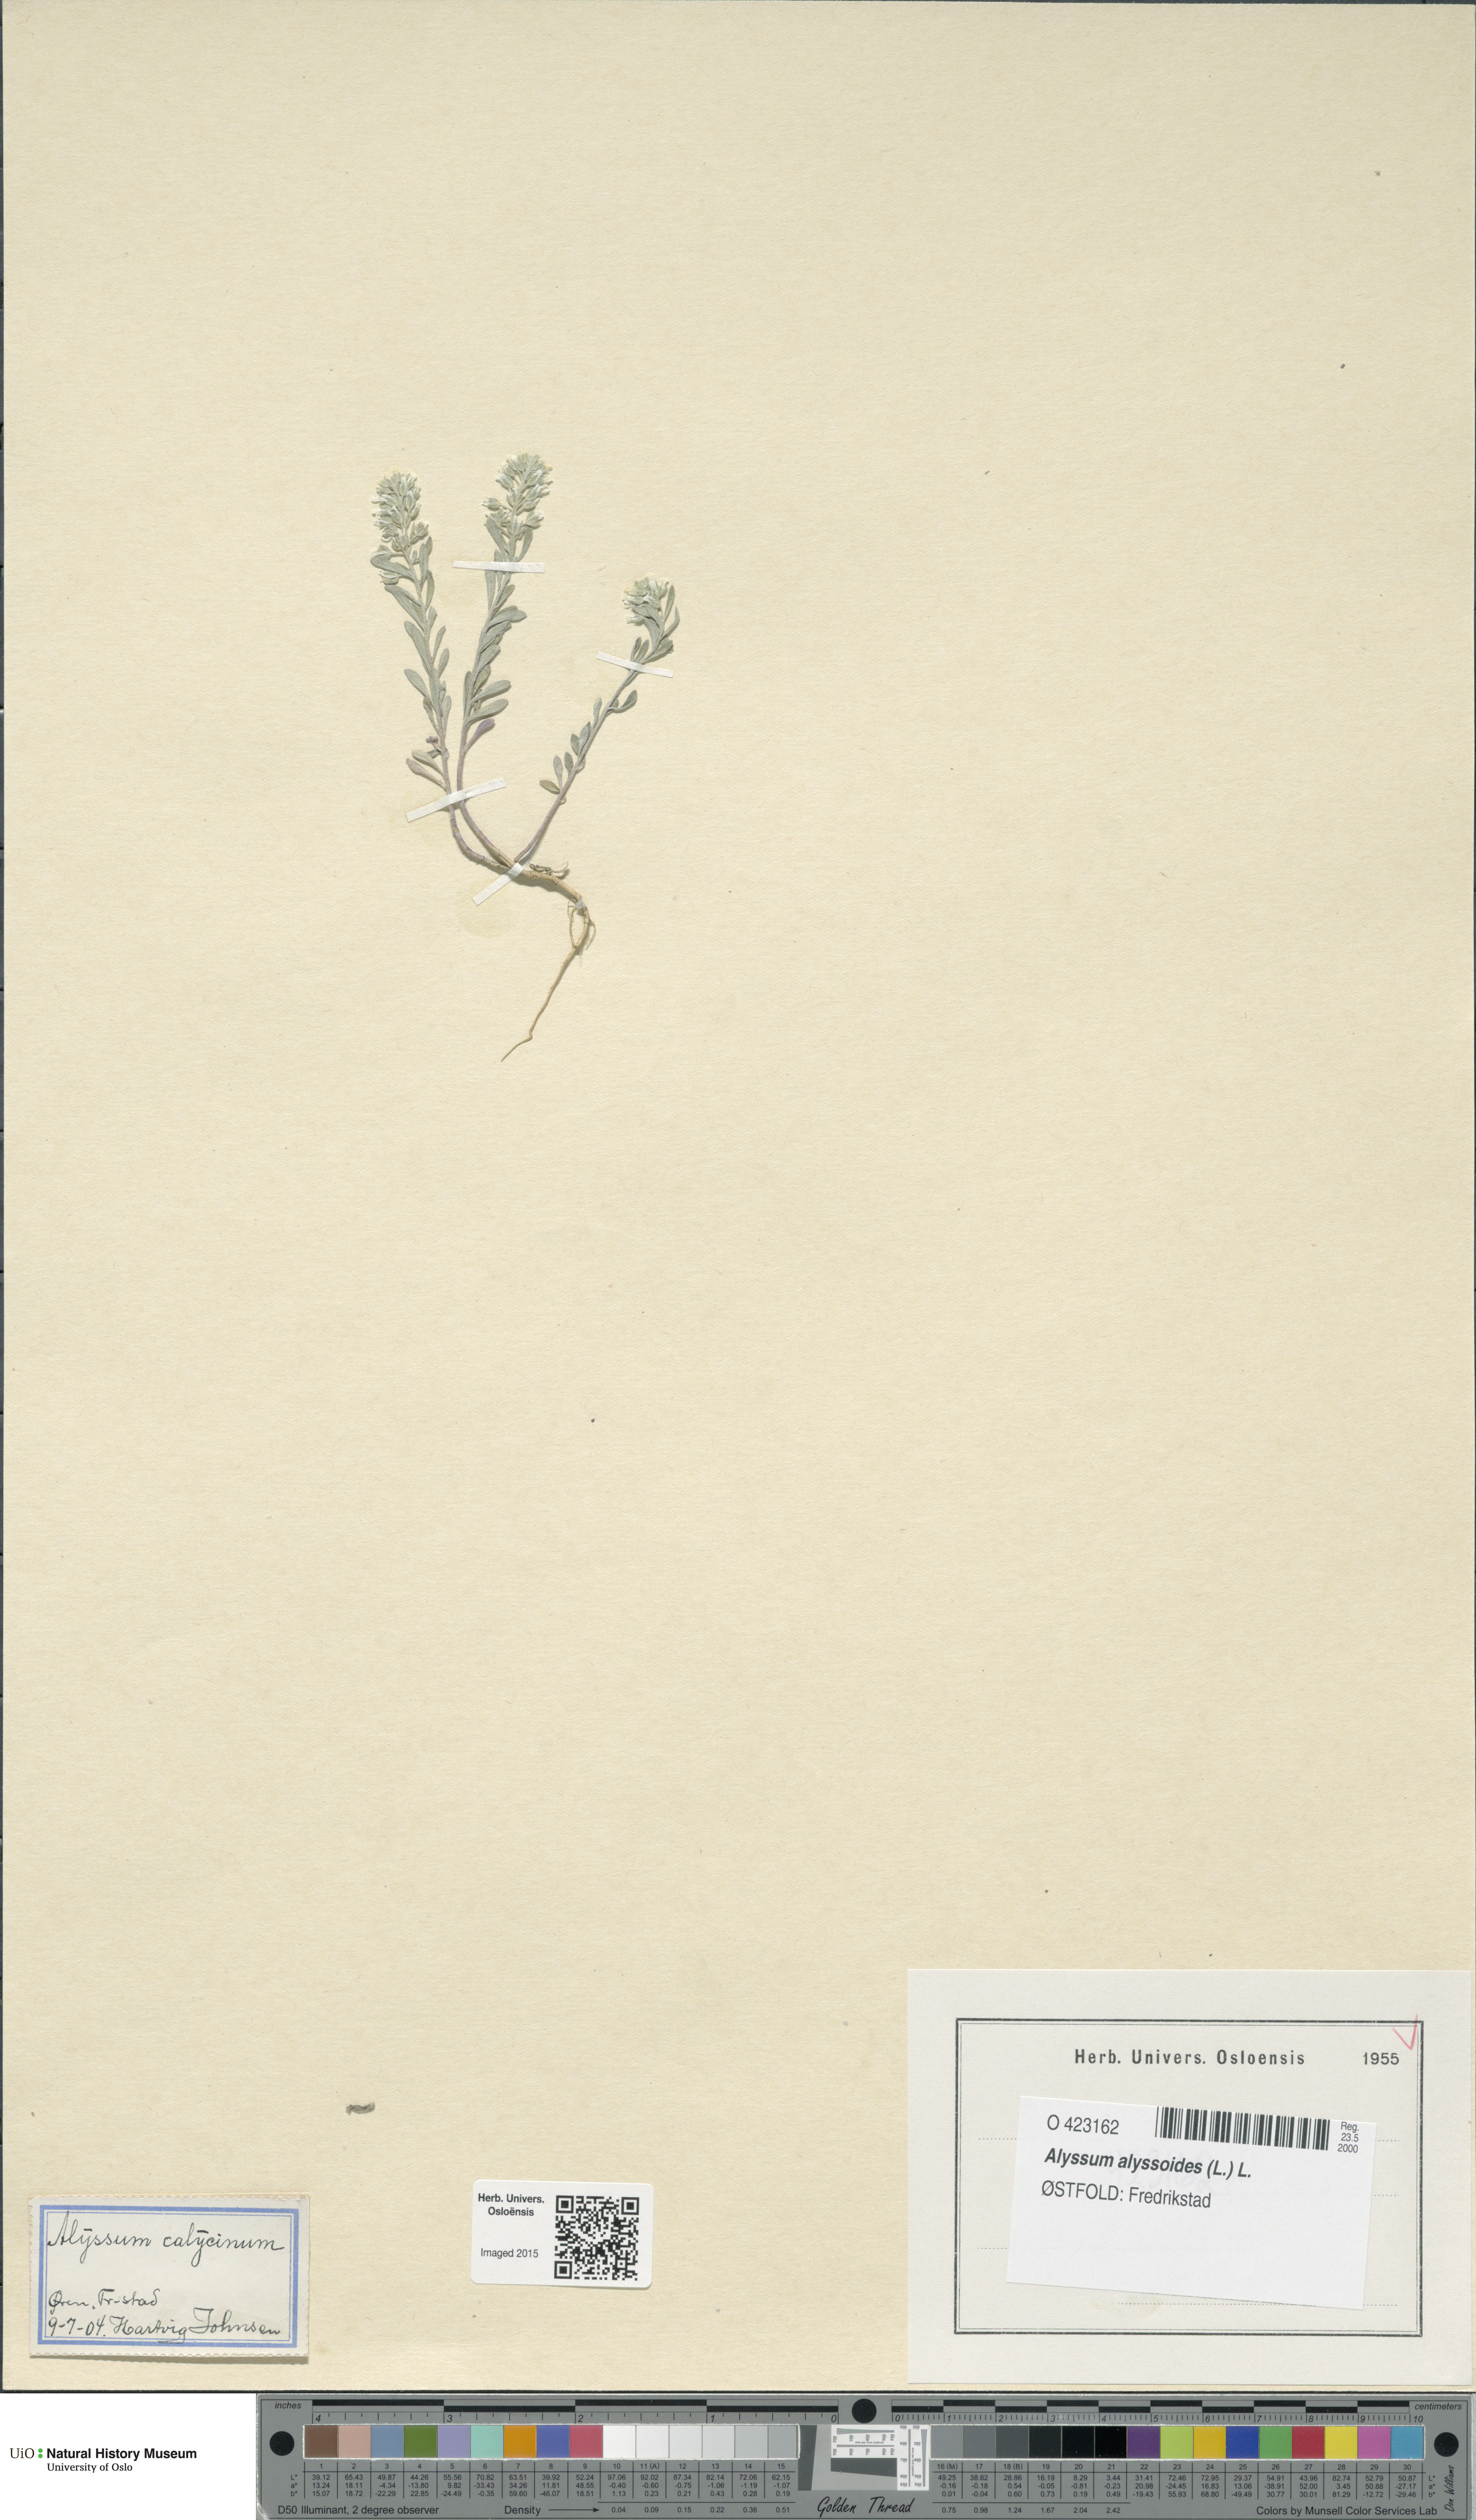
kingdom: Plantae
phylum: Tracheophyta
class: Magnoliopsida
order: Brassicales
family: Brassicaceae
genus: Alyssum
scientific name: Alyssum alyssoides
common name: Small alison
